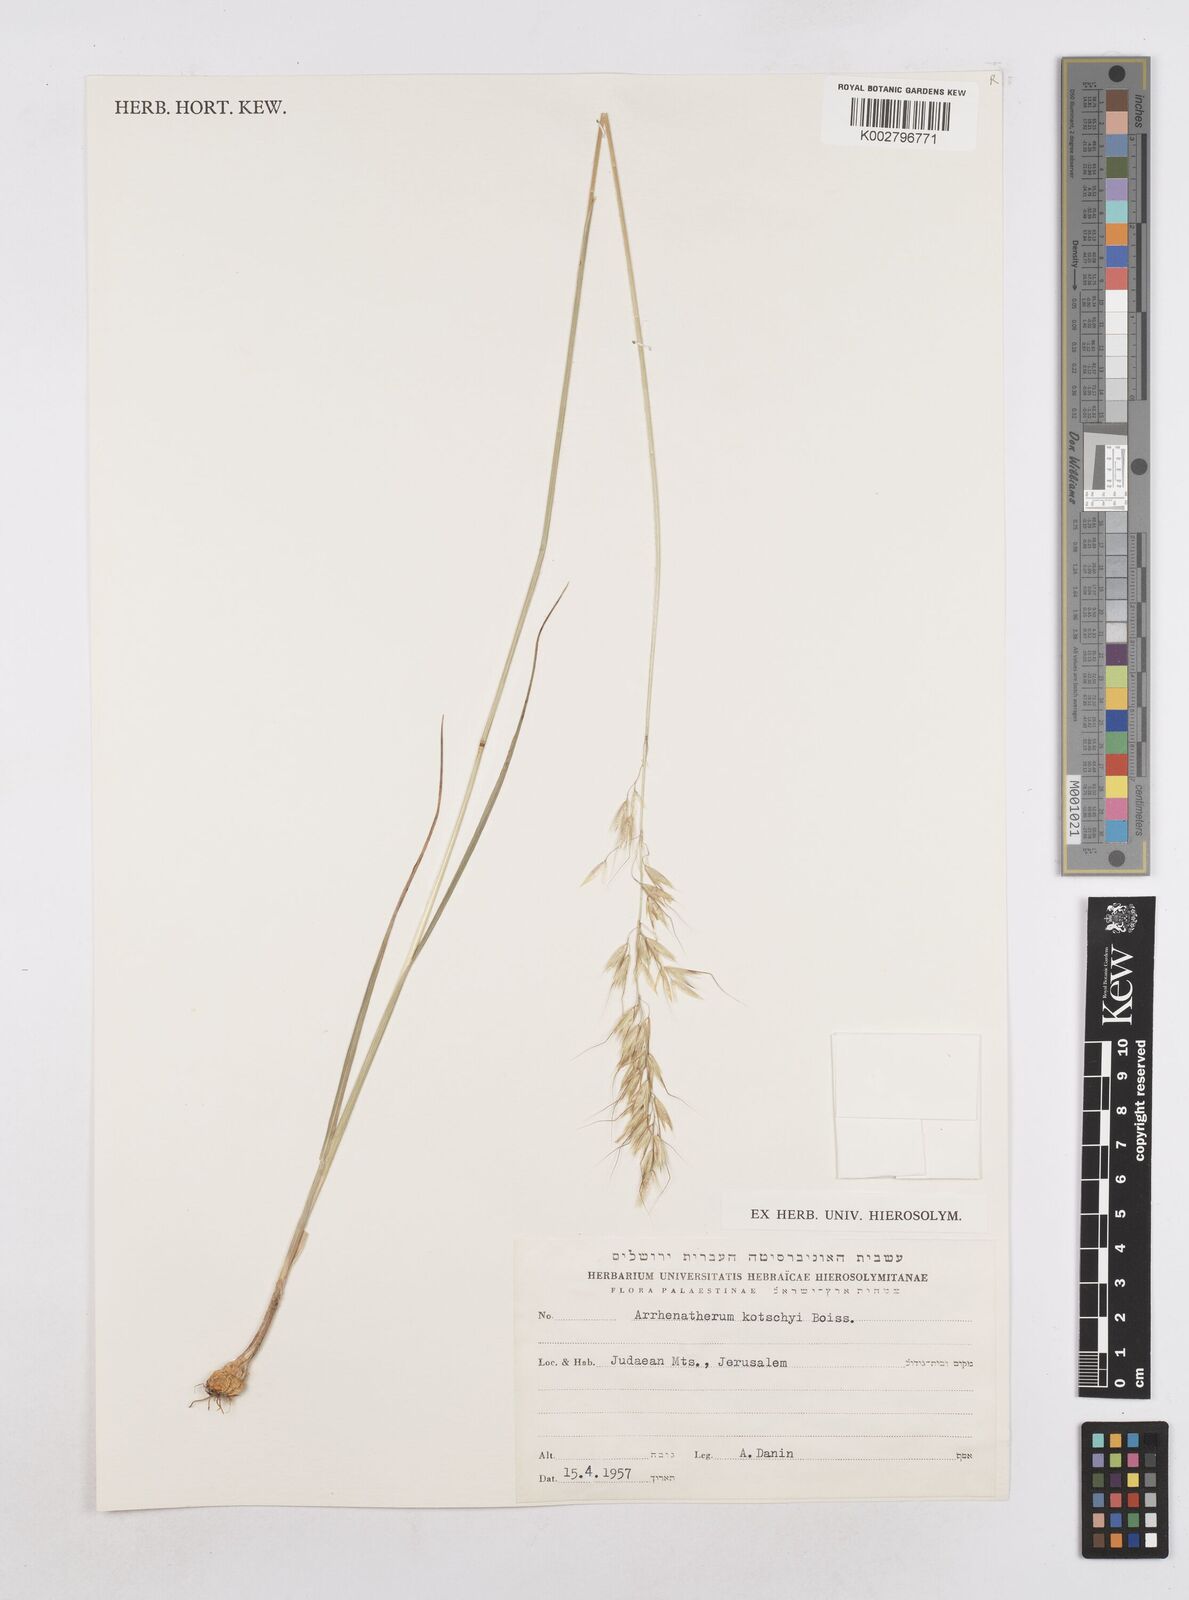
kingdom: Plantae
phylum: Tracheophyta
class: Liliopsida
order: Poales
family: Poaceae
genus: Arrhenatherum
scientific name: Arrhenatherum kotschyi
